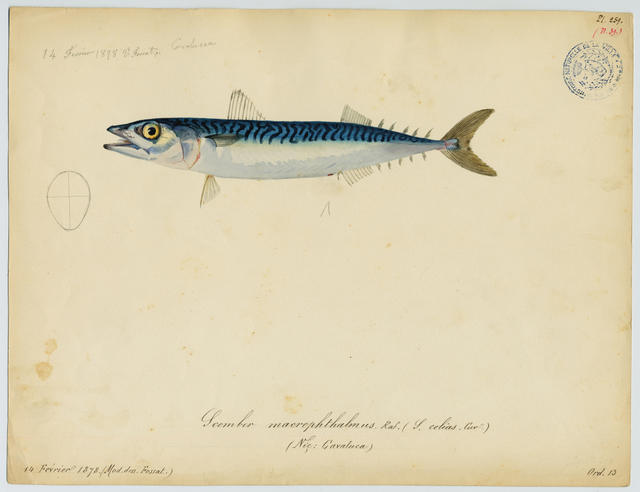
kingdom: Animalia
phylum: Chordata
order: Perciformes
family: Scombridae
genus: Scomber
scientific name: Scomber scombrus
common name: Mackerel
